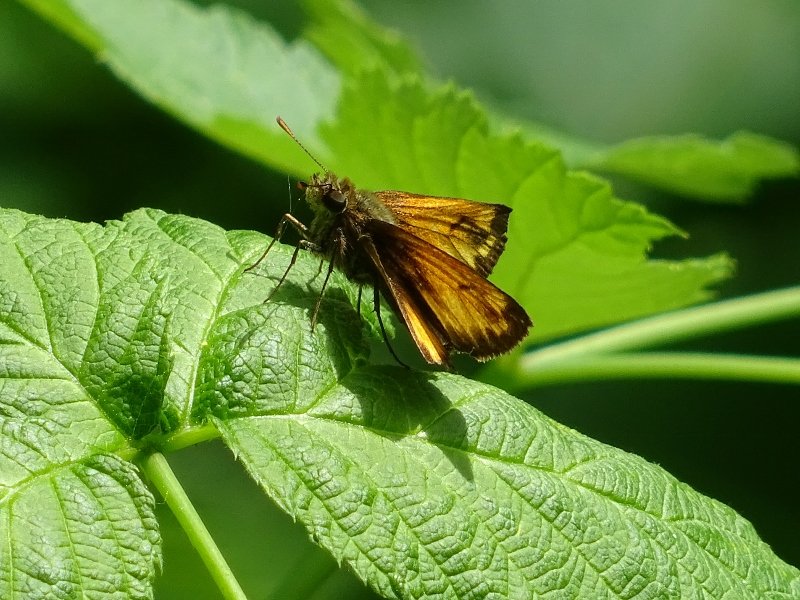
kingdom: Animalia
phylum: Arthropoda
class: Insecta
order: Lepidoptera
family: Hesperiidae
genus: Lon
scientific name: Lon hobomok
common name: Hobomok Skipper
